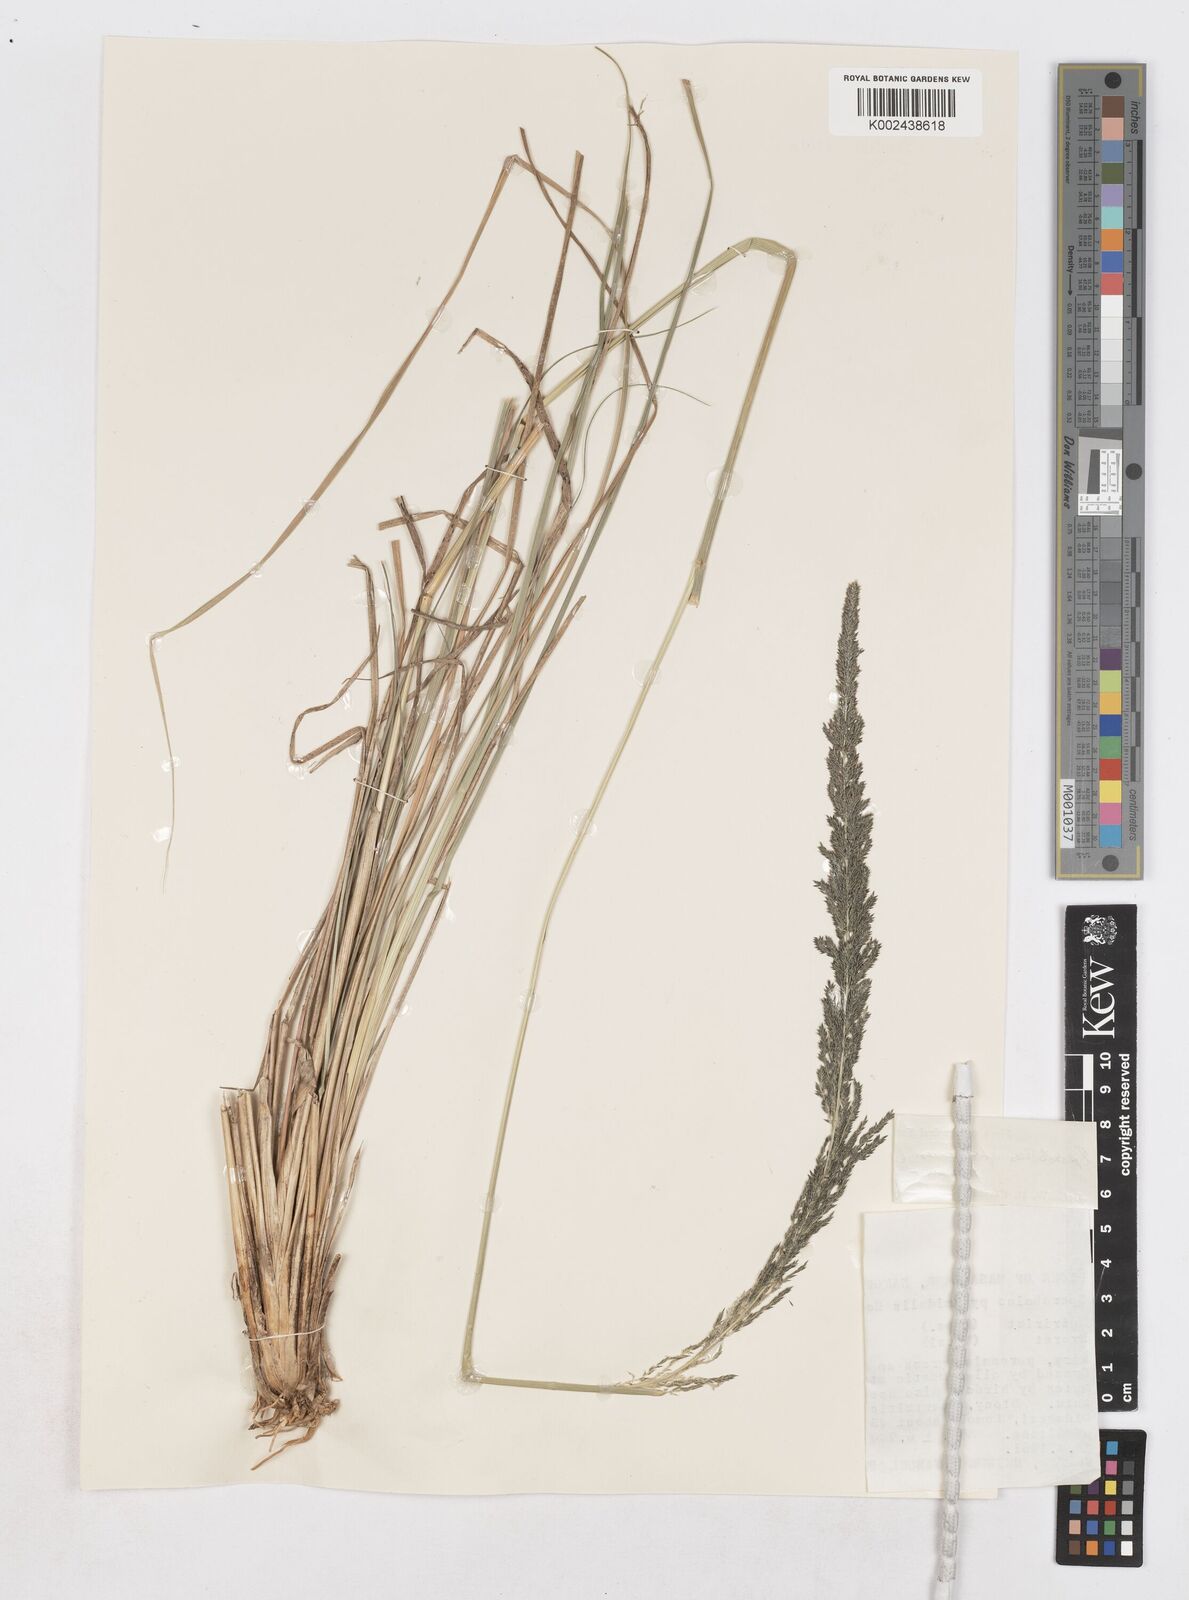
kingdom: Plantae
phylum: Tracheophyta
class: Liliopsida
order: Poales
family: Poaceae
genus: Sporobolus
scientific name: Sporobolus africanus
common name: African dropseed
